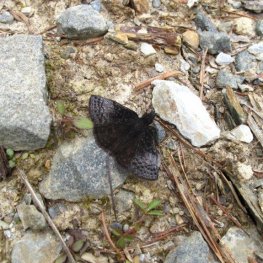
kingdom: Animalia
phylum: Arthropoda
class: Insecta
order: Lepidoptera
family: Hesperiidae
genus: Erynnis
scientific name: Erynnis icelus
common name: Dreamy Duskywing
